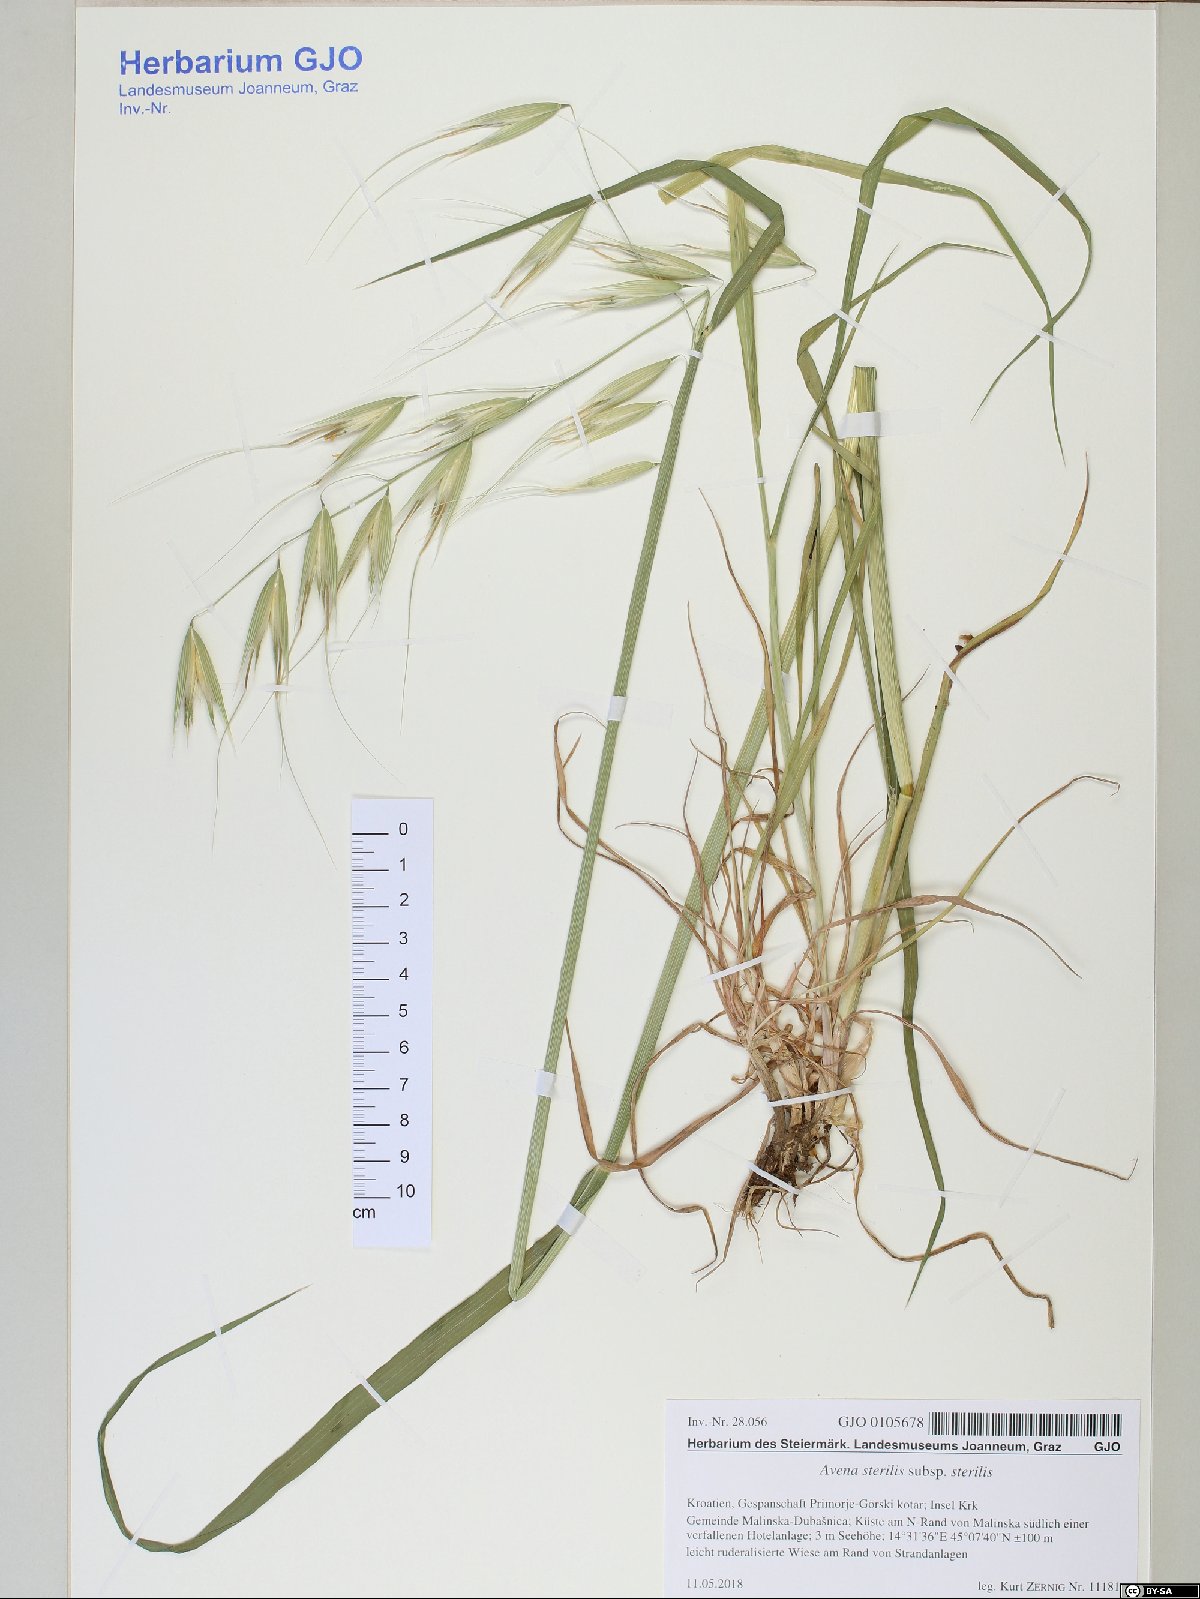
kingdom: Plantae
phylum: Tracheophyta
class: Liliopsida
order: Poales
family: Poaceae
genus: Avena
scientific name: Avena sterilis
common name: Animated oat
